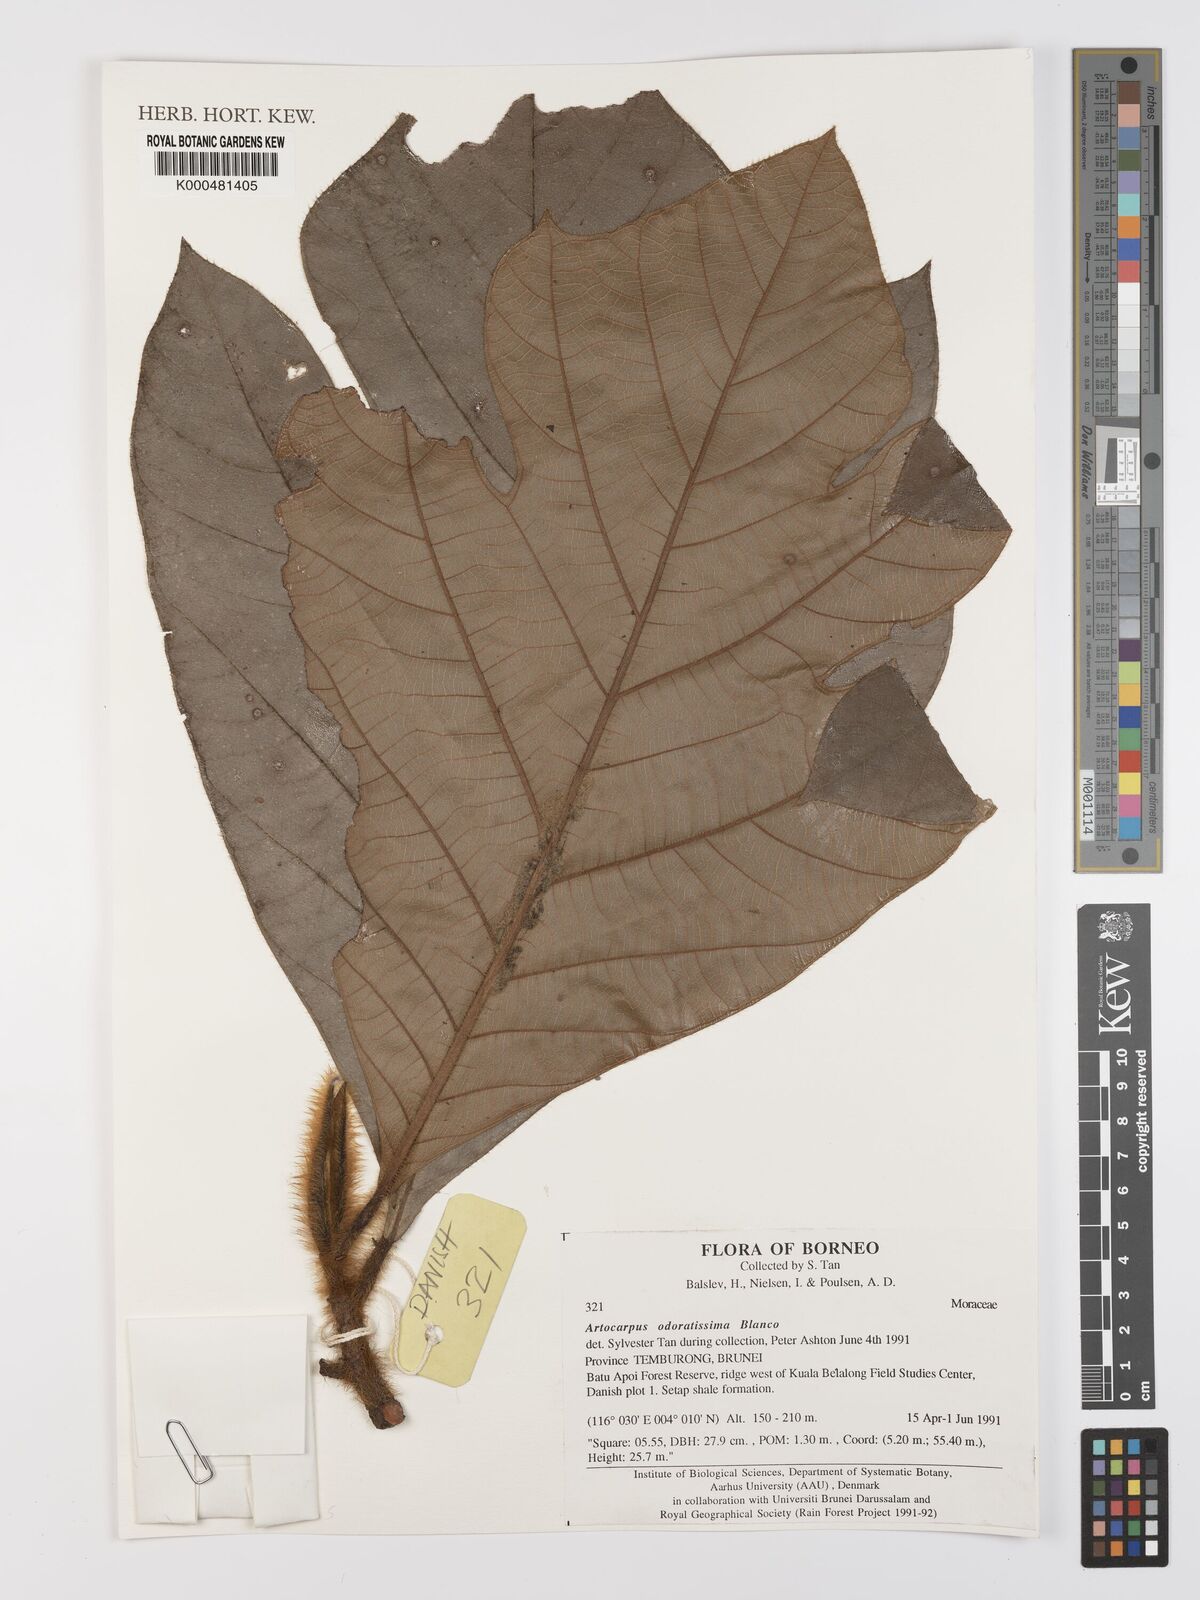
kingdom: Plantae
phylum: Tracheophyta
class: Magnoliopsida
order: Rosales
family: Moraceae
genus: Artocarpus
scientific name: Artocarpus odoratissimus
